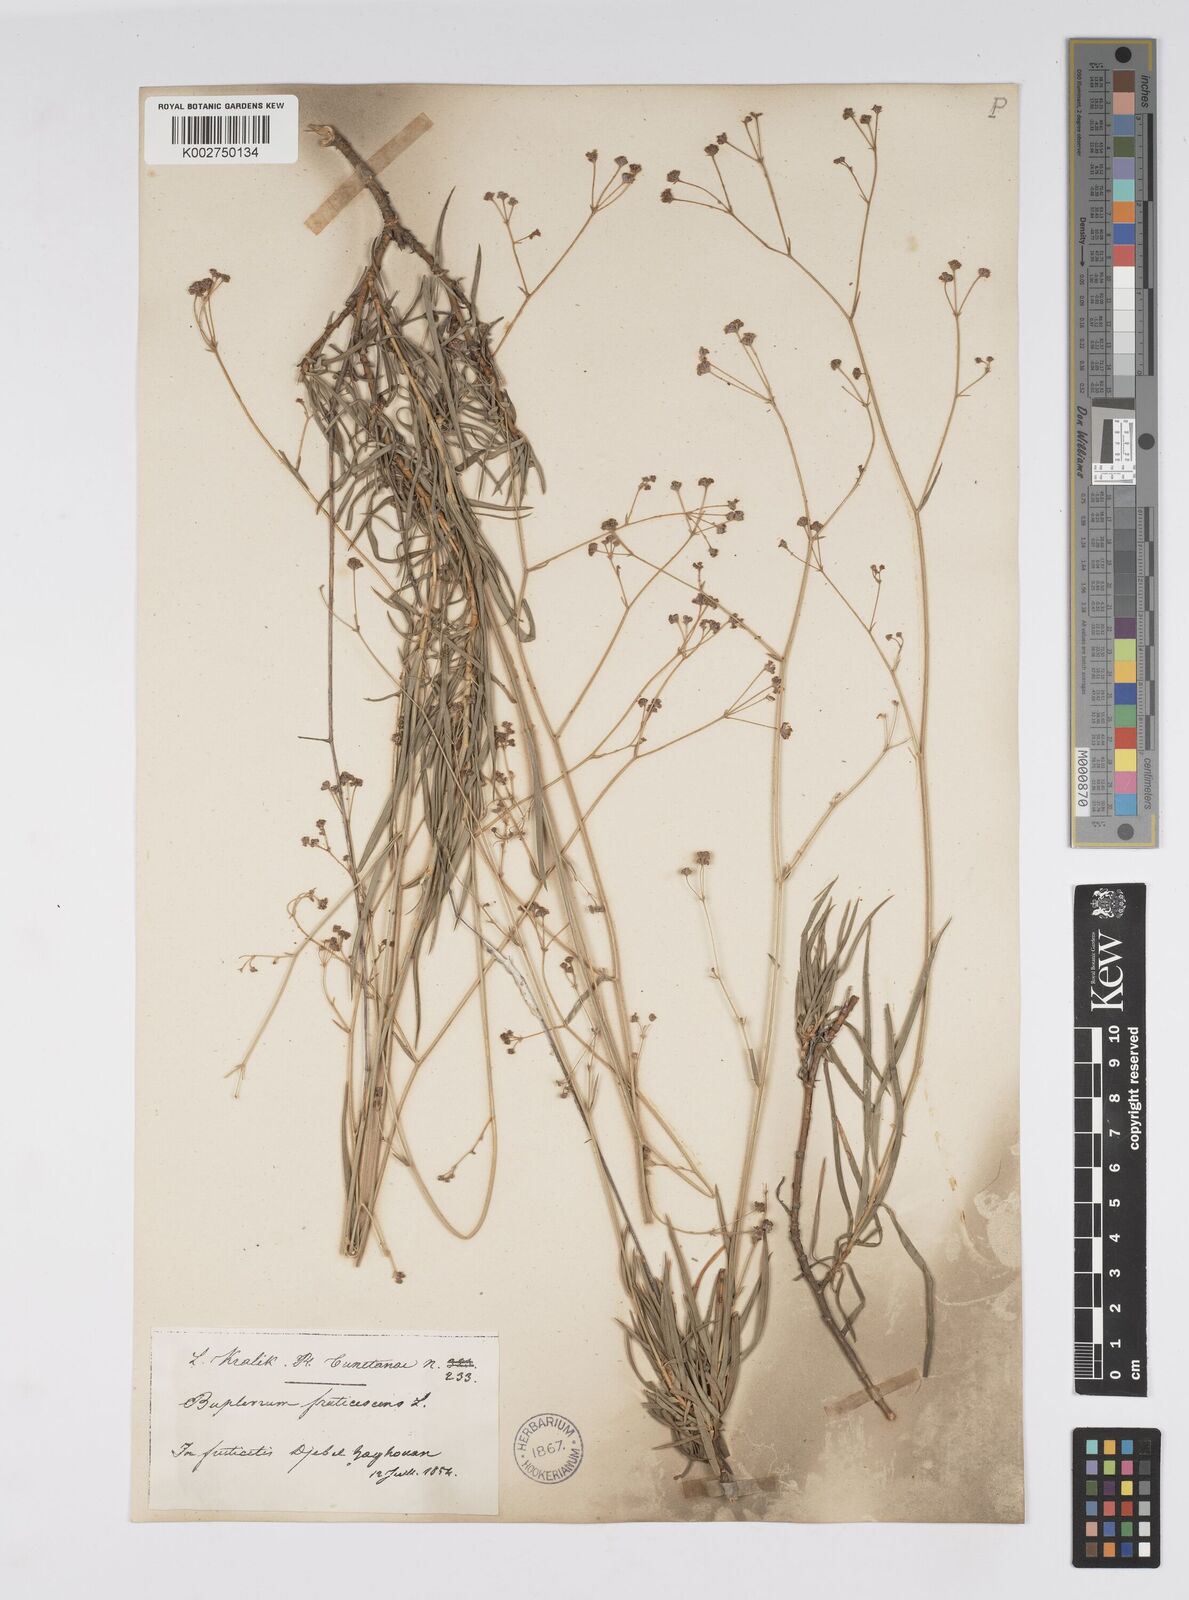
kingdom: Plantae
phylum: Tracheophyta
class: Magnoliopsida
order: Apiales
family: Apiaceae
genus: Bupleurum
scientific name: Bupleurum balansae
